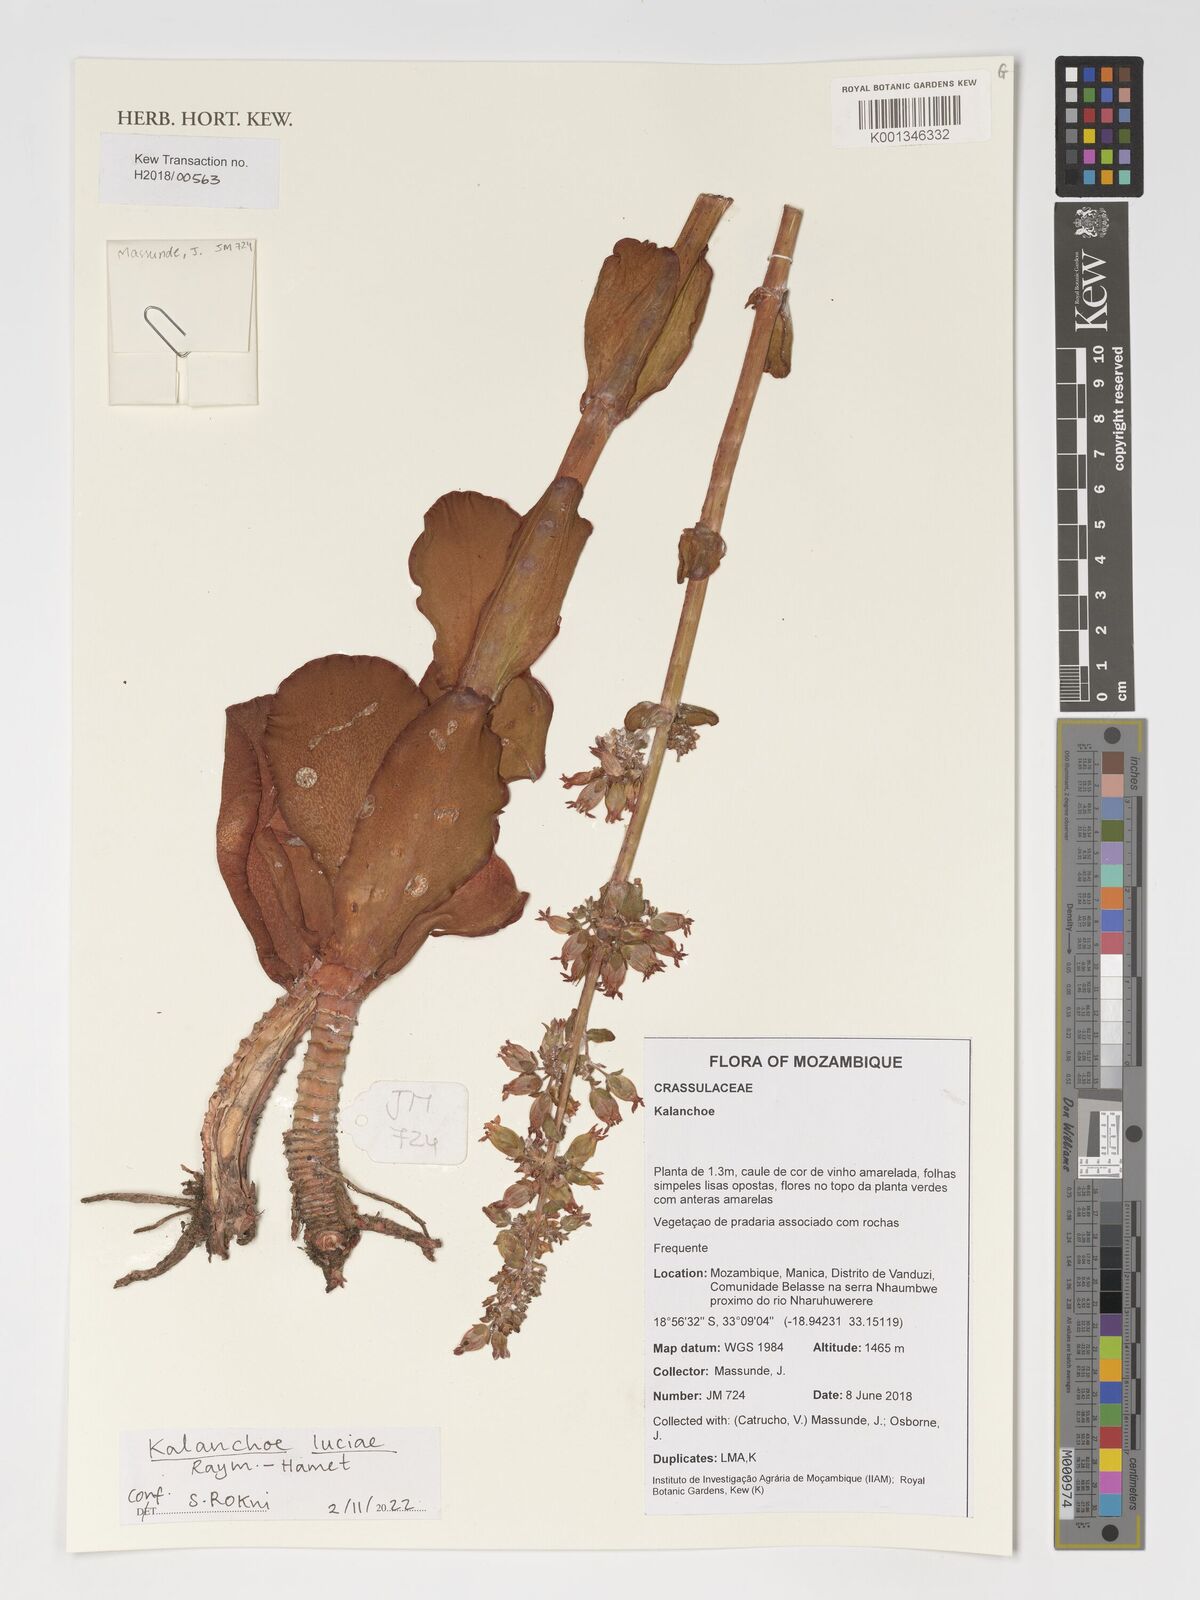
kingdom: Plantae
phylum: Tracheophyta
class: Magnoliopsida
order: Saxifragales
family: Crassulaceae
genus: Kalanchoe
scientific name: Kalanchoe luciae
